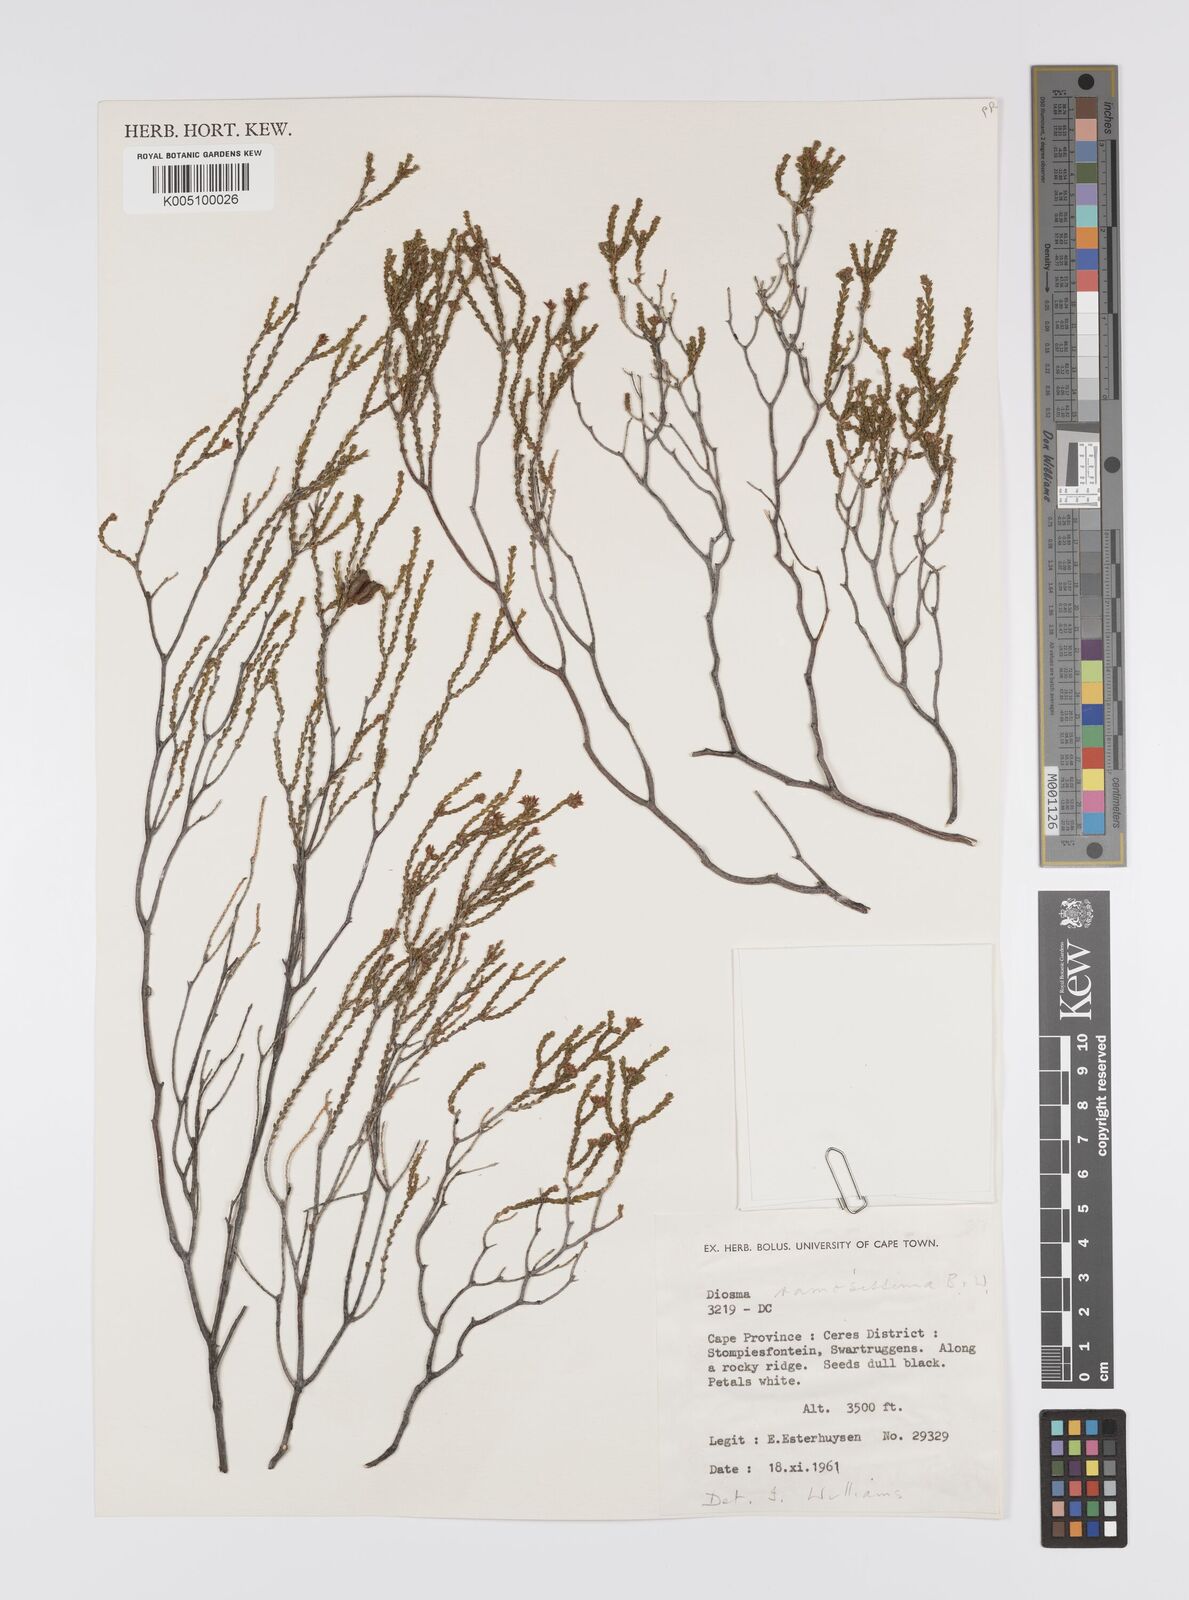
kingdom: Plantae
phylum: Tracheophyta
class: Magnoliopsida
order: Sapindales
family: Rutaceae
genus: Diosma
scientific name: Diosma ramosissima
